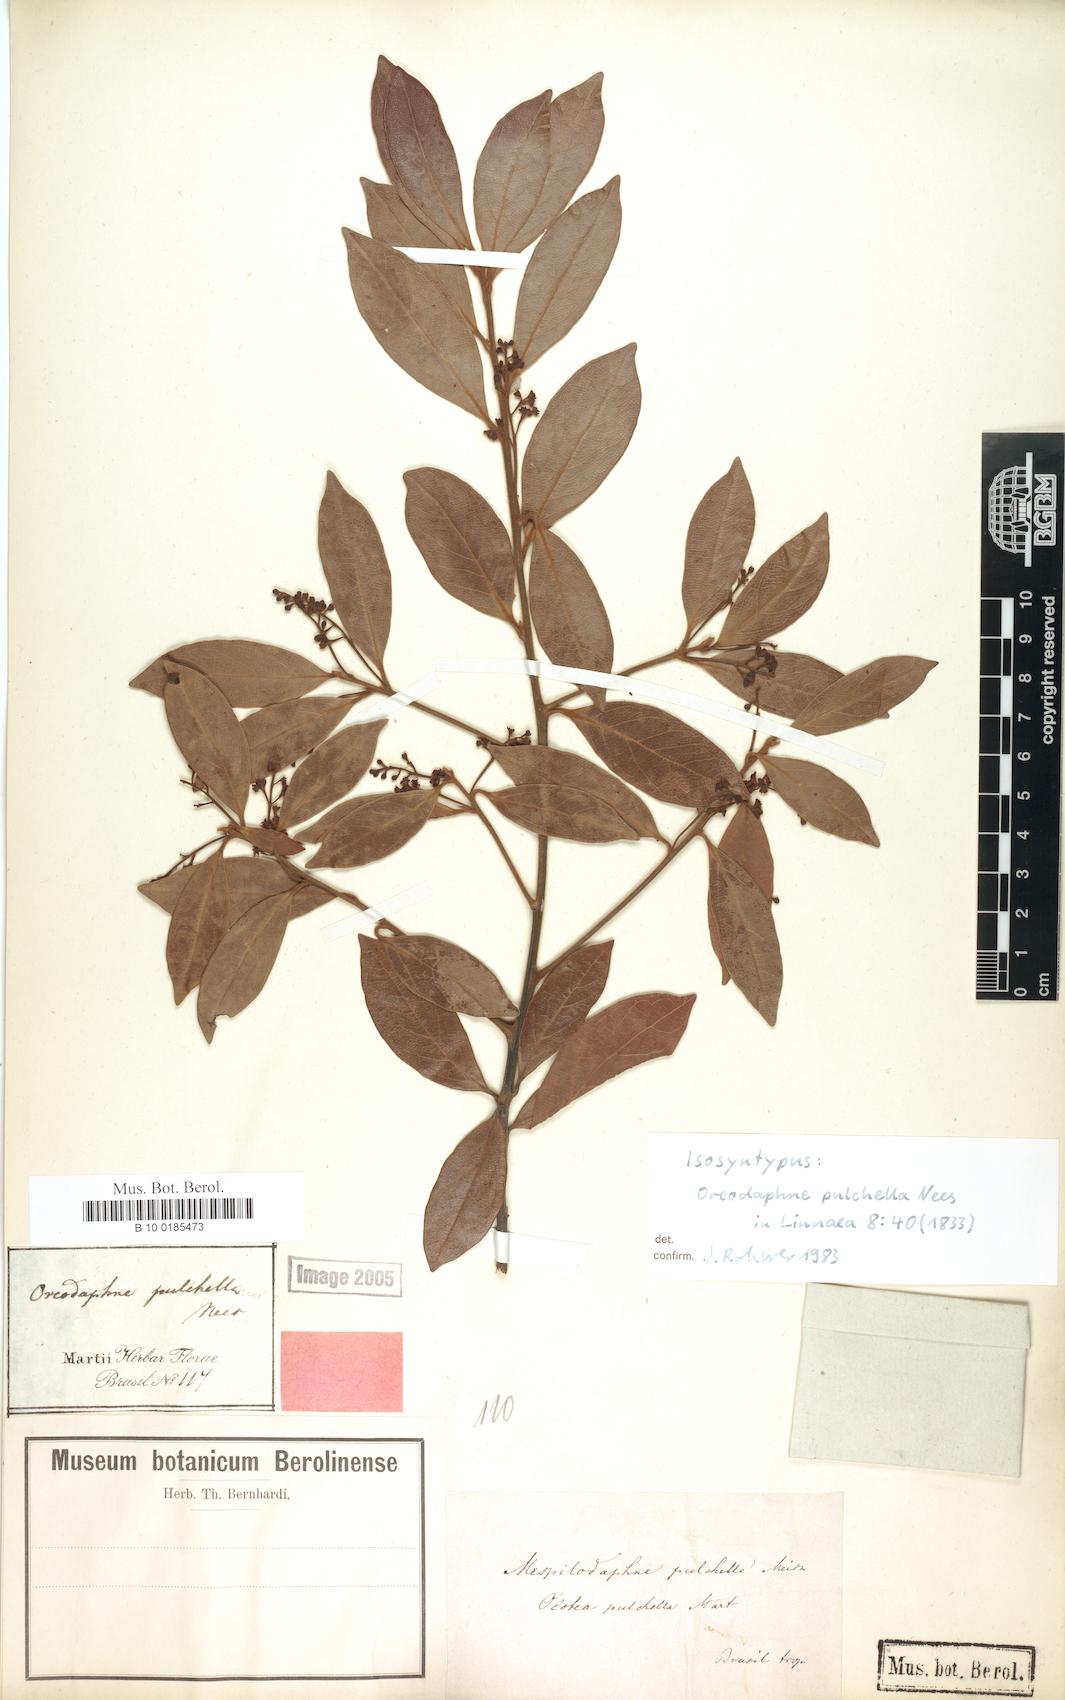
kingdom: Plantae
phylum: Tracheophyta
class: Magnoliopsida
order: Laurales
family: Lauraceae
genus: Mespilodaphne
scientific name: Mespilodaphne pulchella
